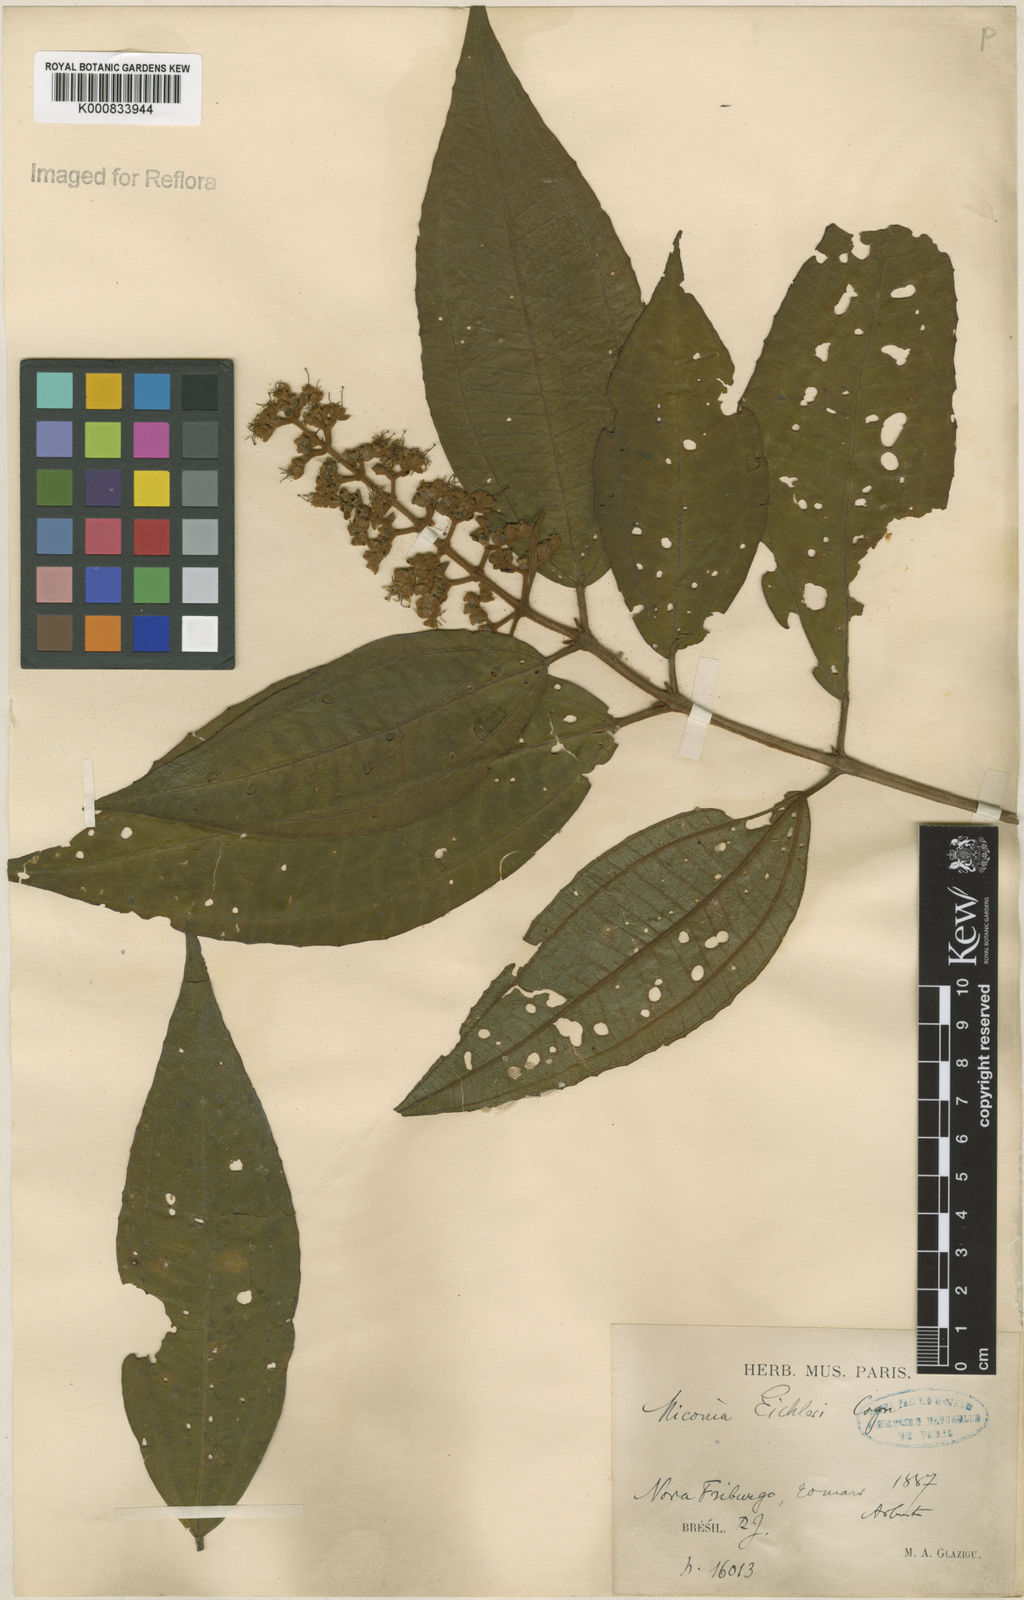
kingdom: Plantae
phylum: Tracheophyta
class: Magnoliopsida
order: Myrtales
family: Melastomataceae
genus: Miconia
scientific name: Miconia valtheri
